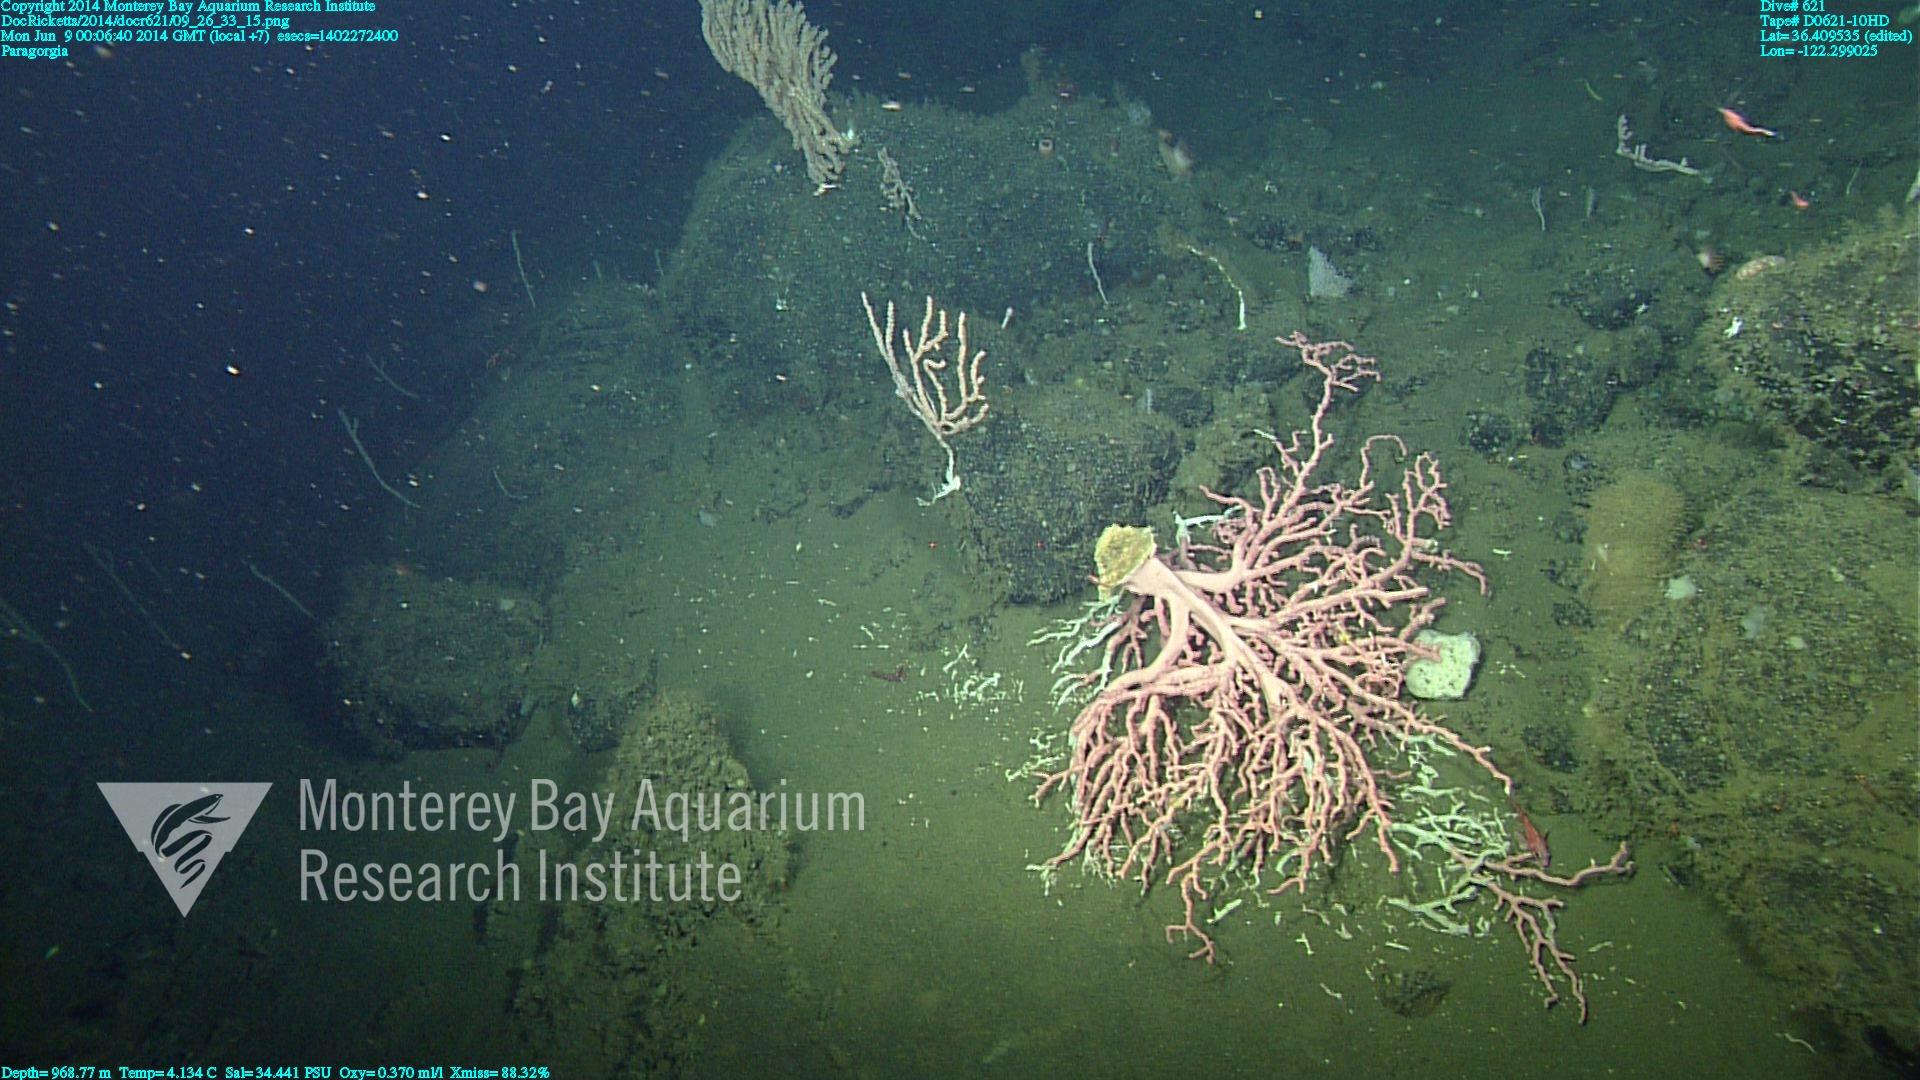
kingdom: Animalia
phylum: Cnidaria
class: Anthozoa
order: Scleralcyonacea
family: Coralliidae
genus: Paragorgia
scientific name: Paragorgia arborea
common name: Bubble gum coral
